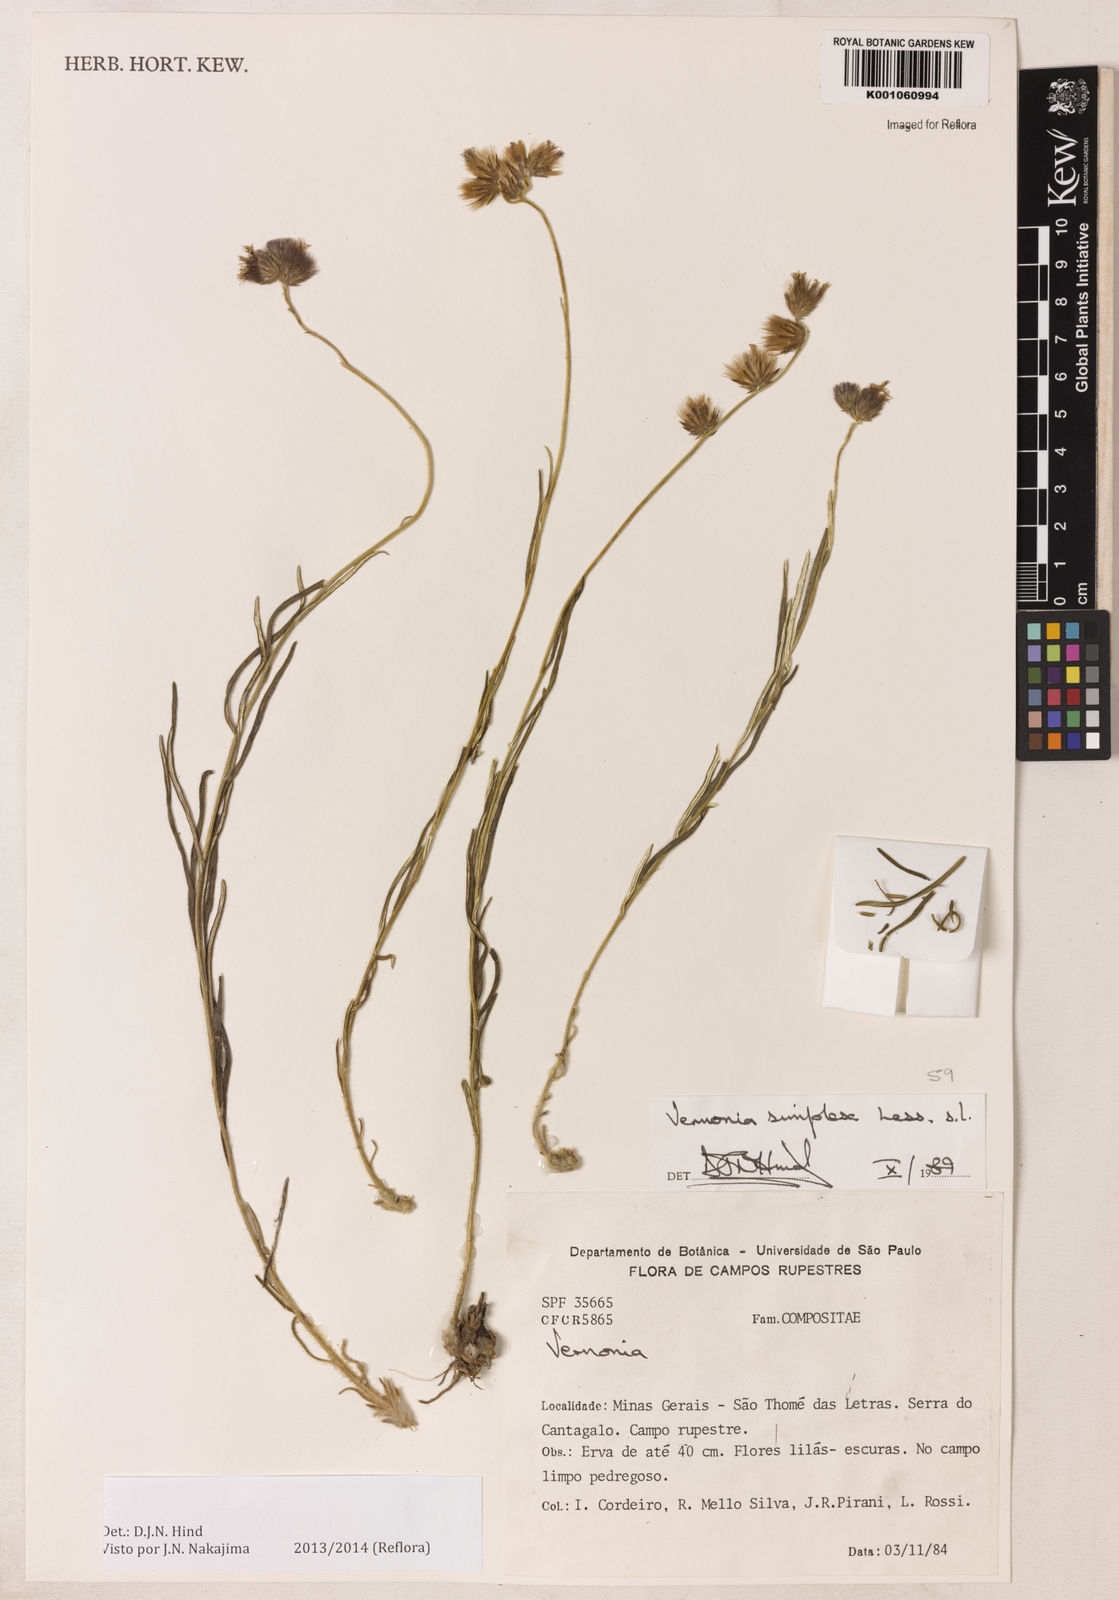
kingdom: Plantae
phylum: Tracheophyta
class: Magnoliopsida
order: Asterales
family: Asteraceae
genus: Chrysolaena
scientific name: Chrysolaena simplex
